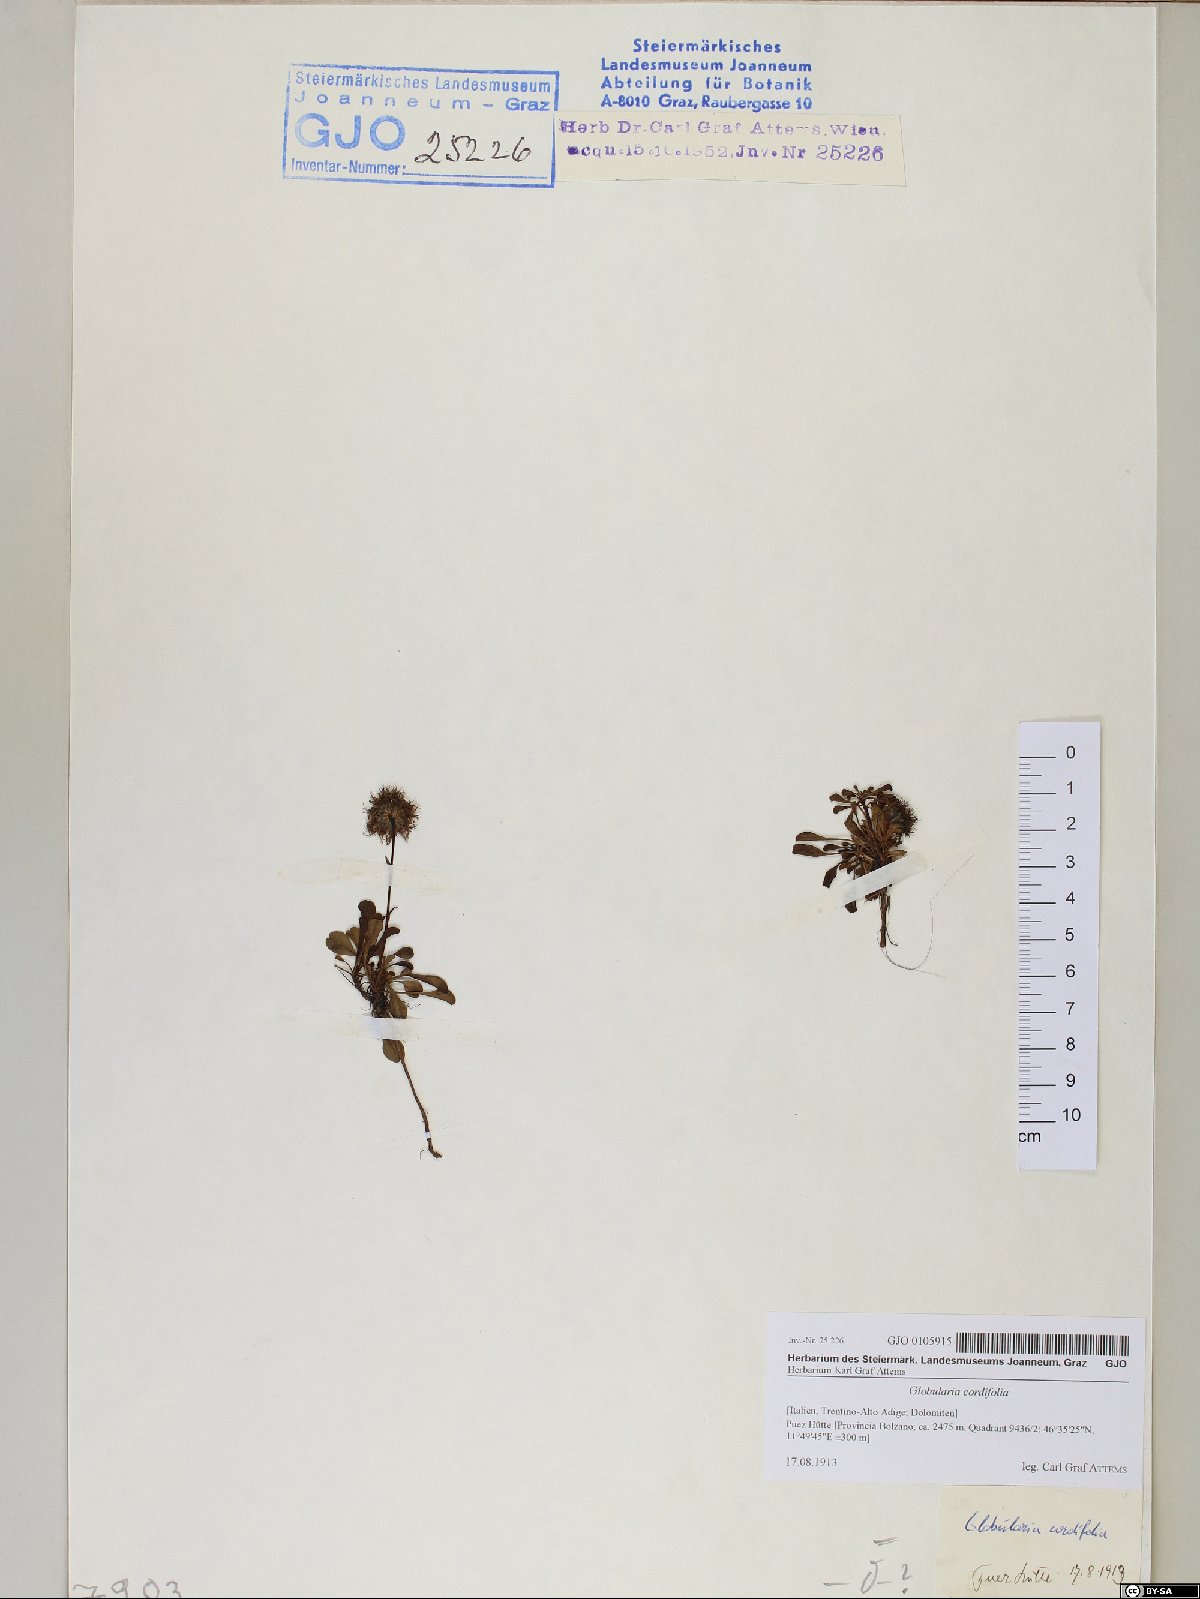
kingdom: Plantae
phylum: Tracheophyta
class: Magnoliopsida
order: Lamiales
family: Plantaginaceae
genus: Globularia
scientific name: Globularia cordifolia
